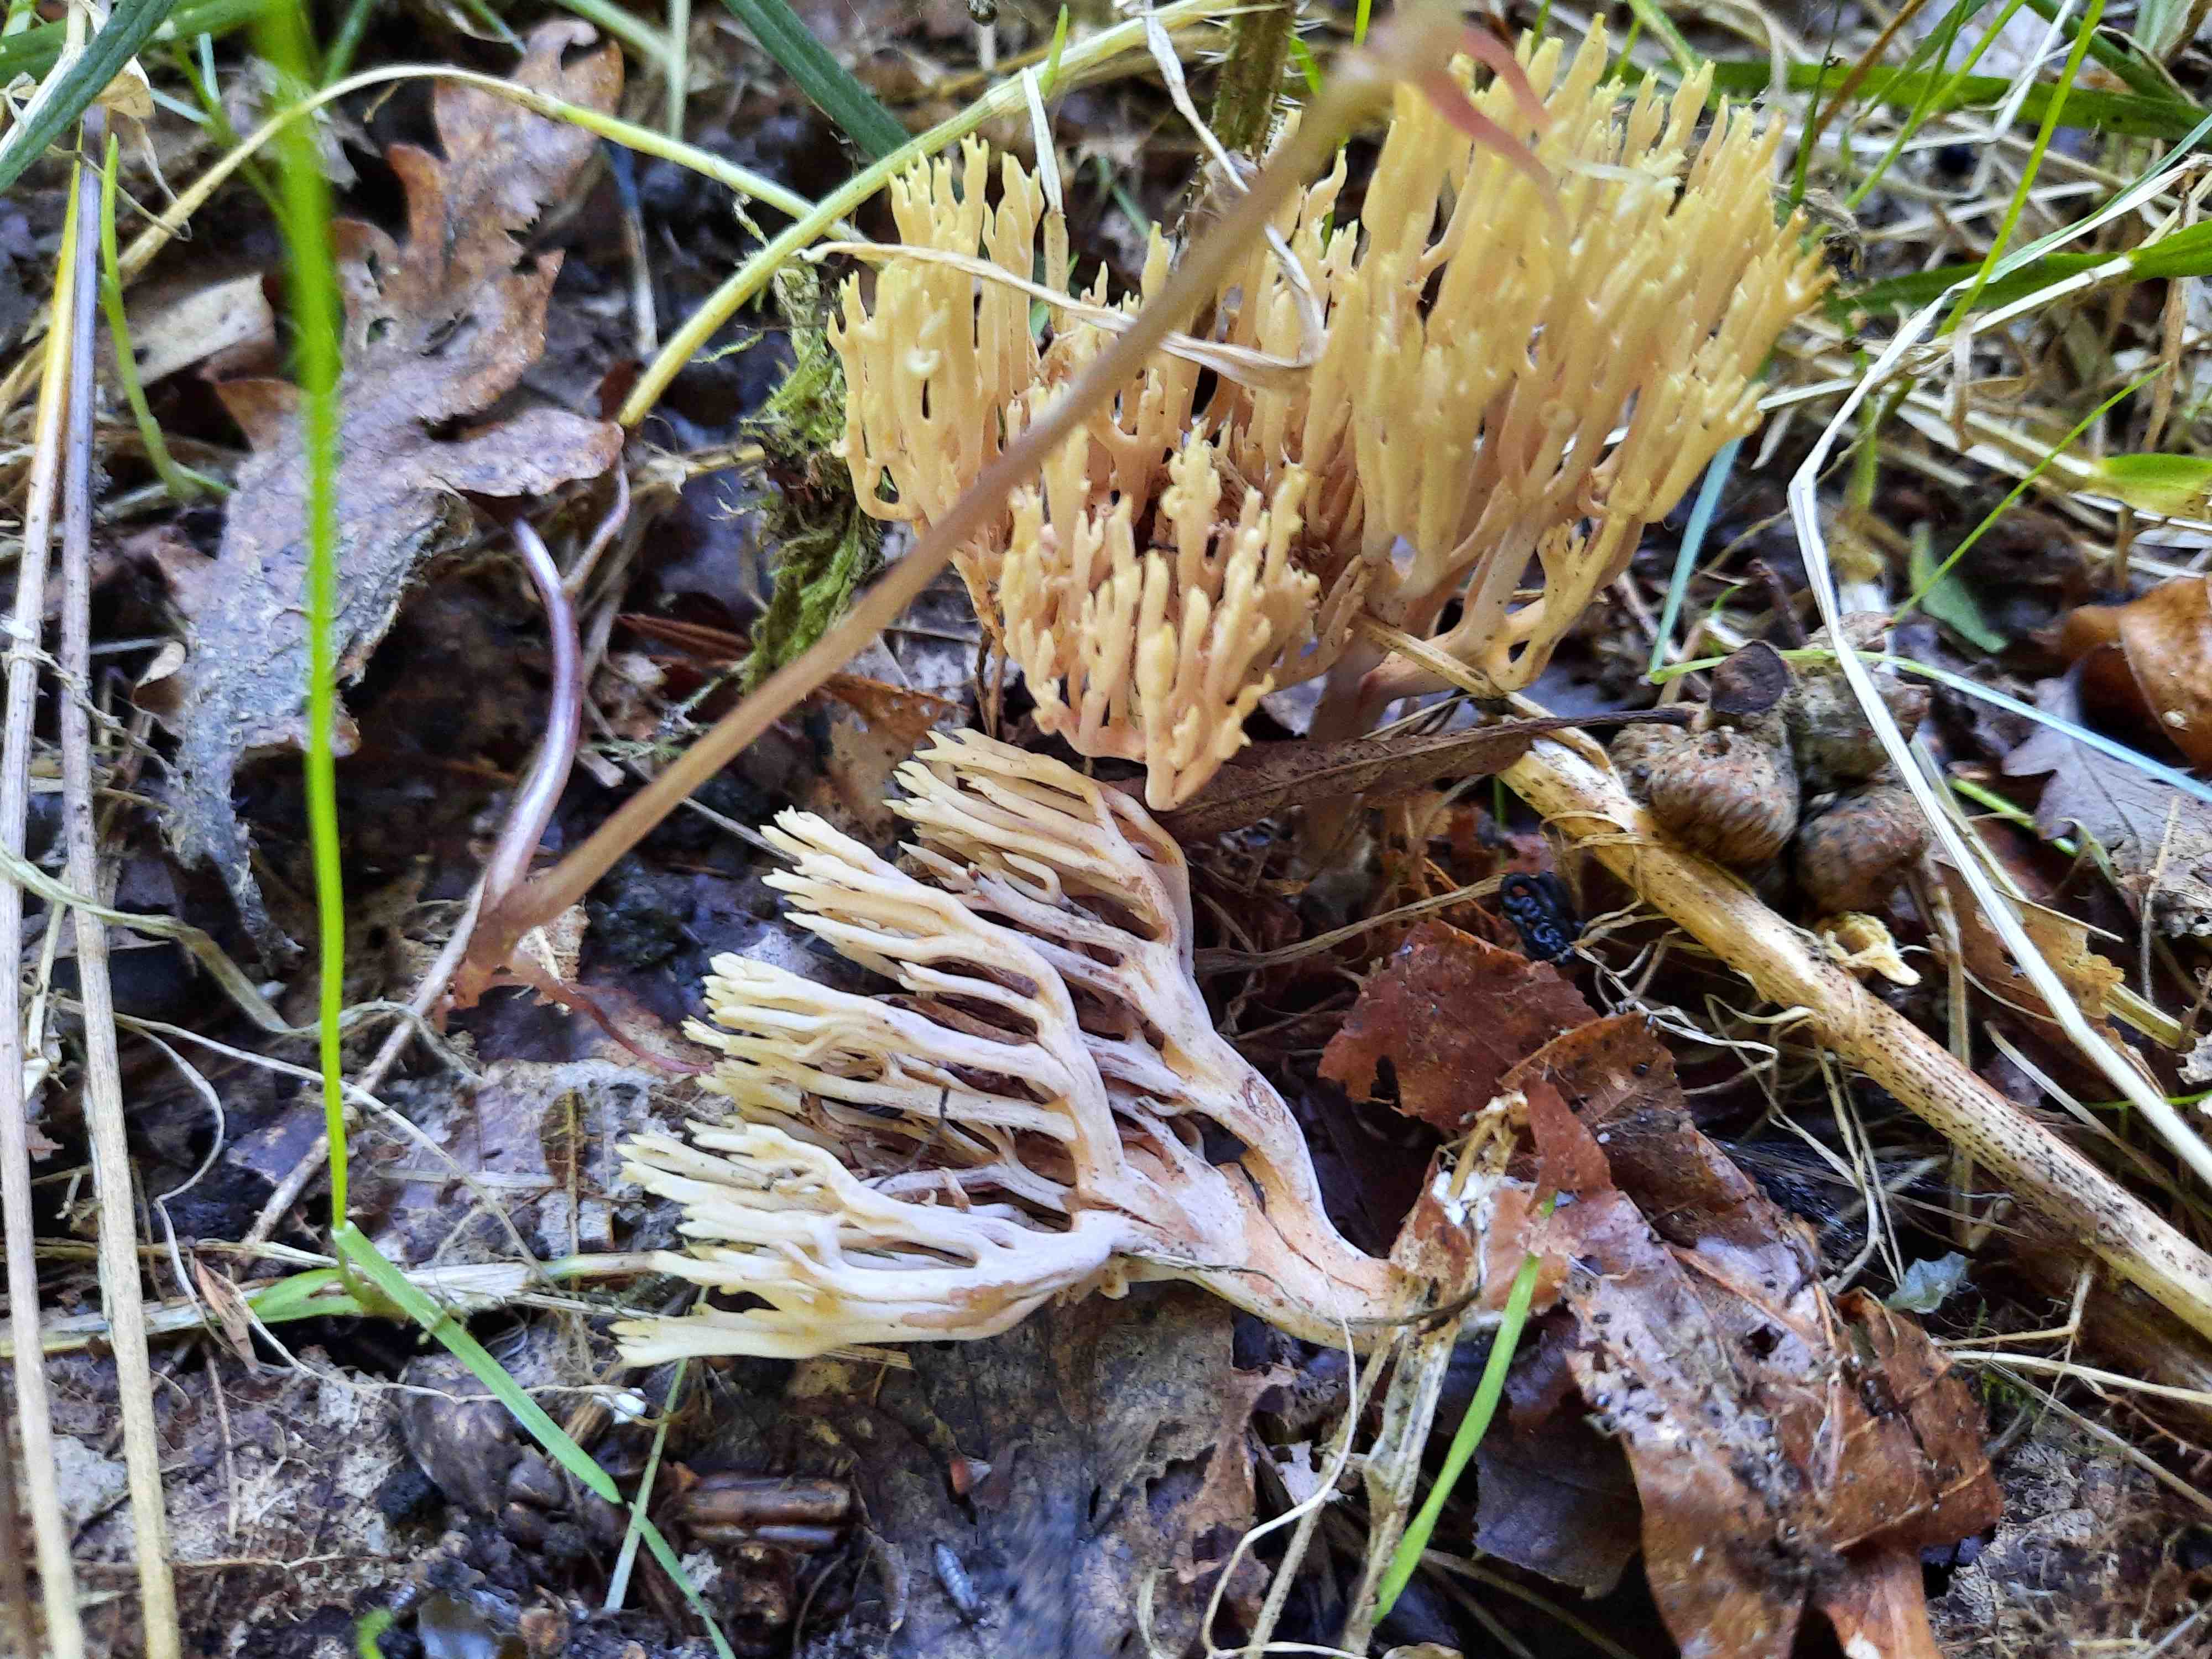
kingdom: Fungi
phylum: Basidiomycota
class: Agaricomycetes
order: Gomphales
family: Gomphaceae
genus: Ramaria
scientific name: Ramaria stricta
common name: rank koralsvamp
